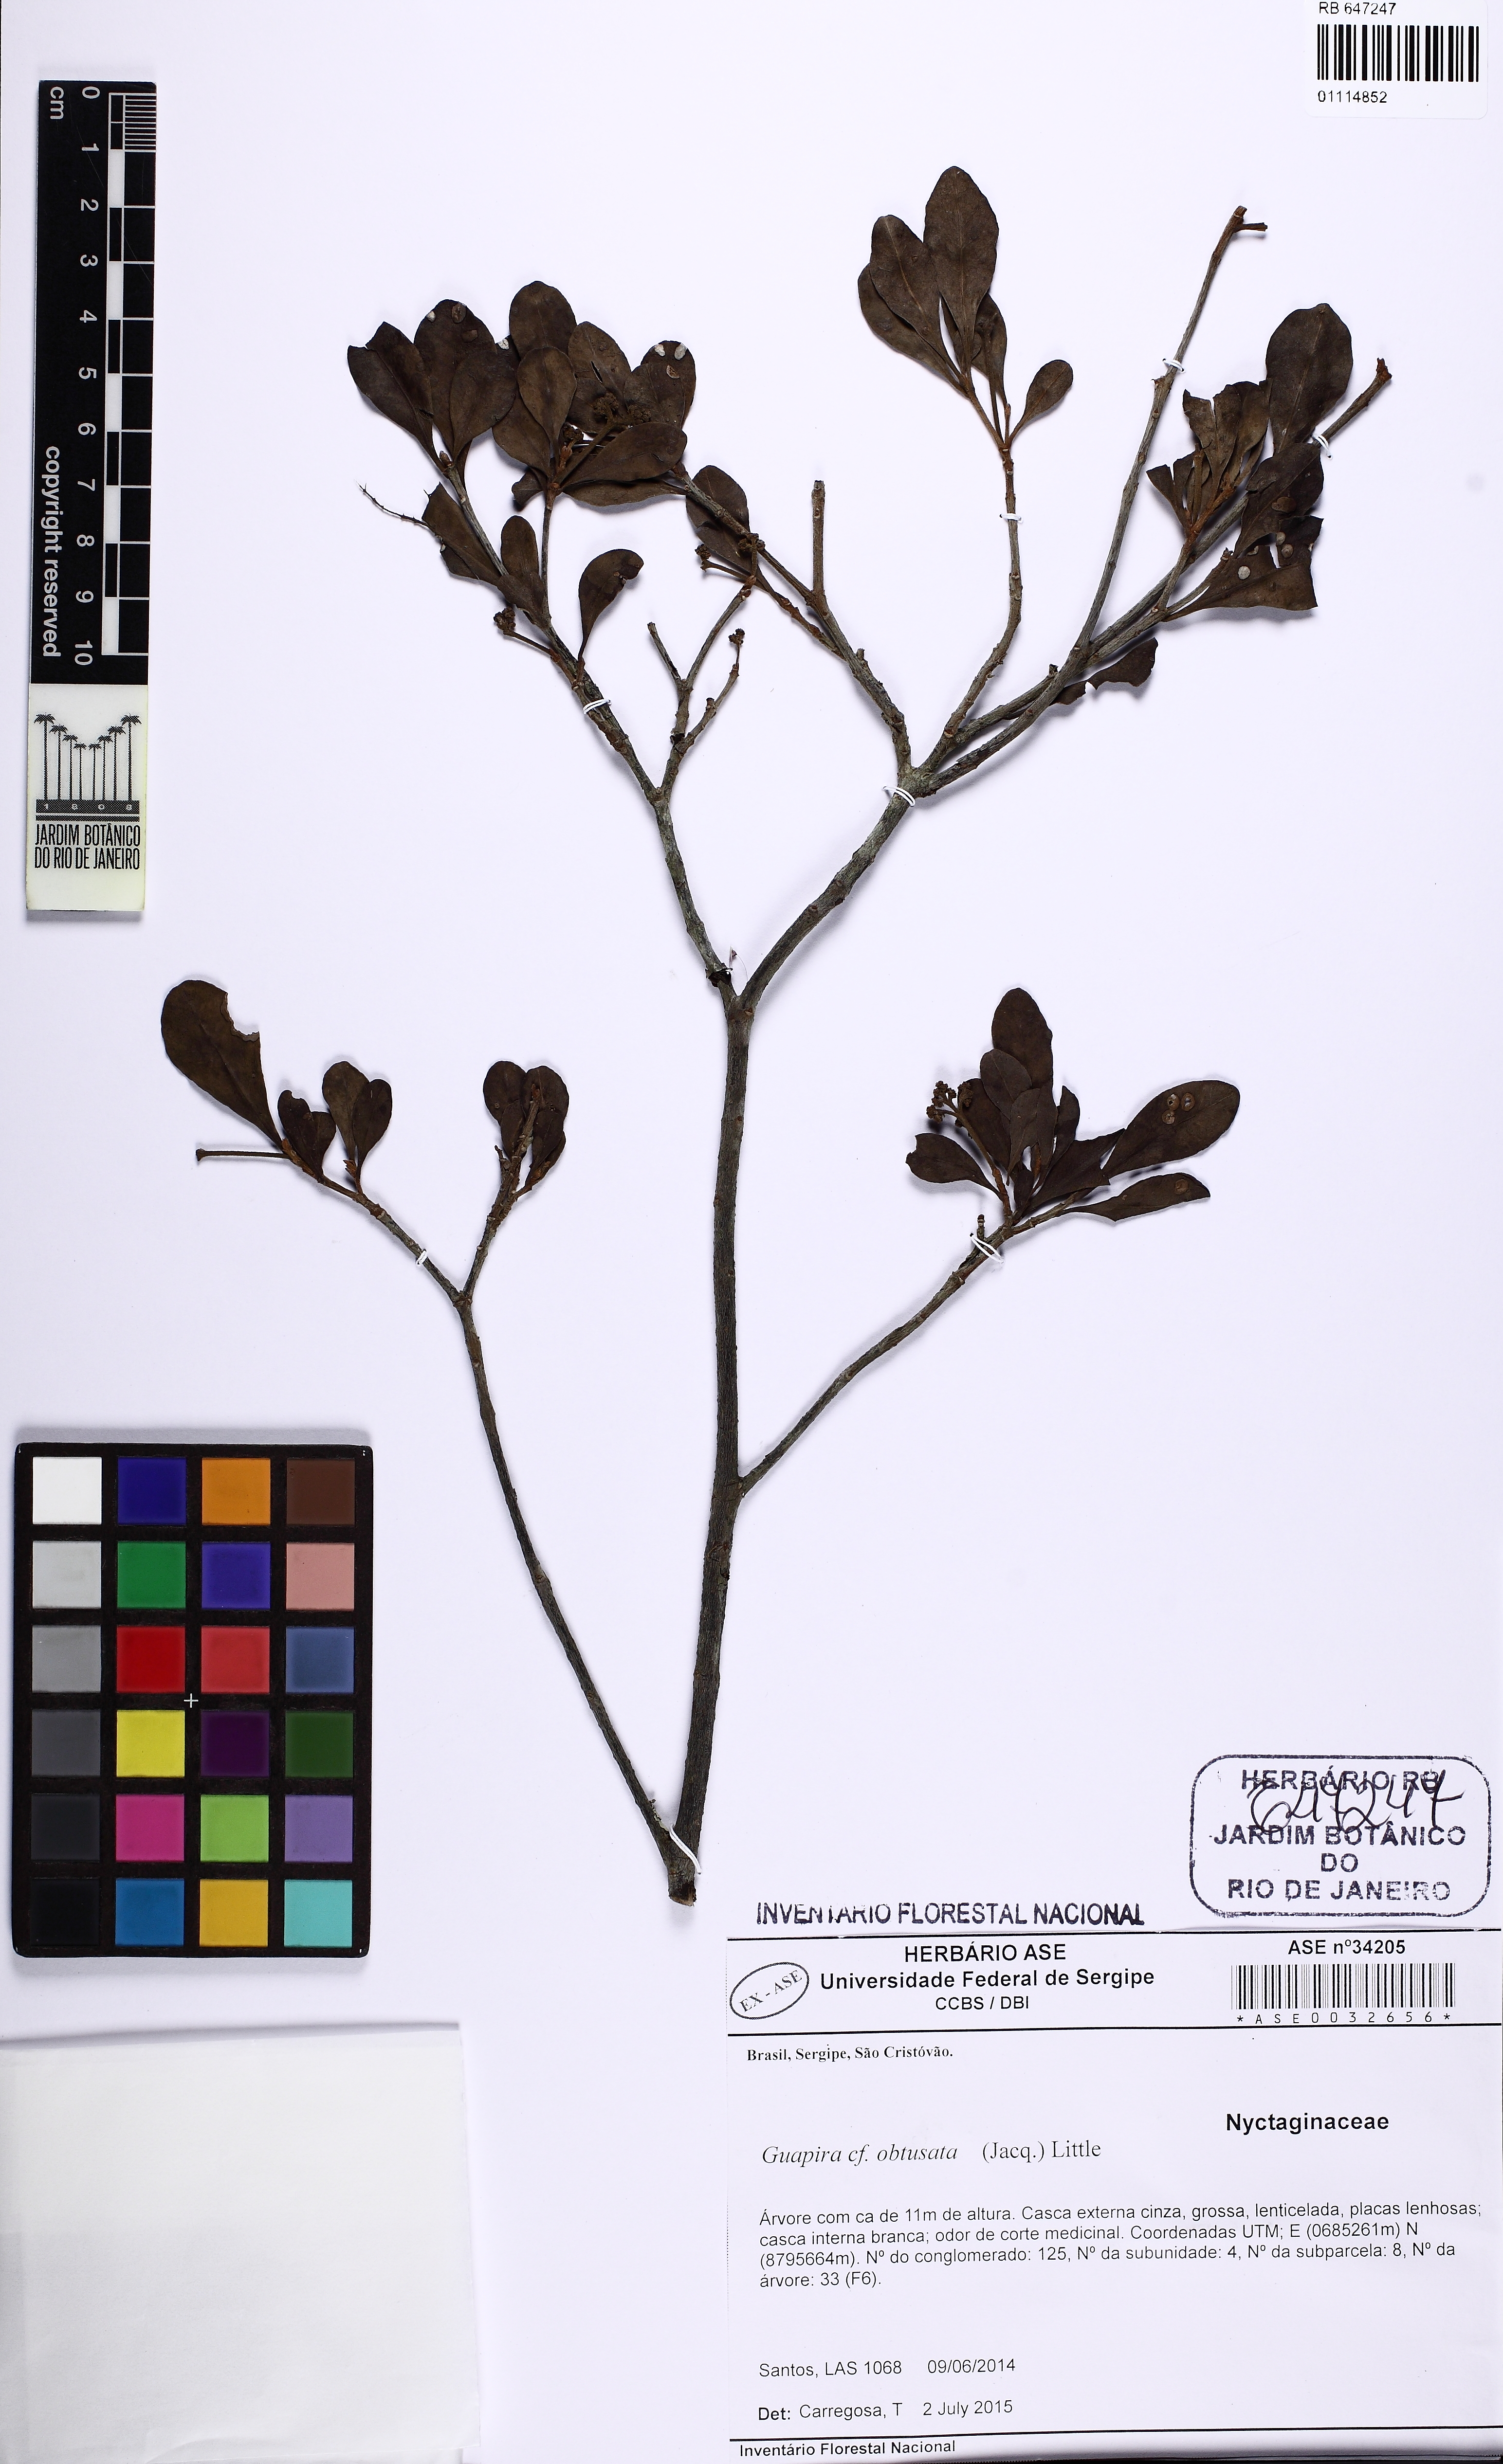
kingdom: Plantae
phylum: Tracheophyta
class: Magnoliopsida
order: Caryophyllales
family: Nyctaginaceae
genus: Guapira
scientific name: Guapira obtusata
